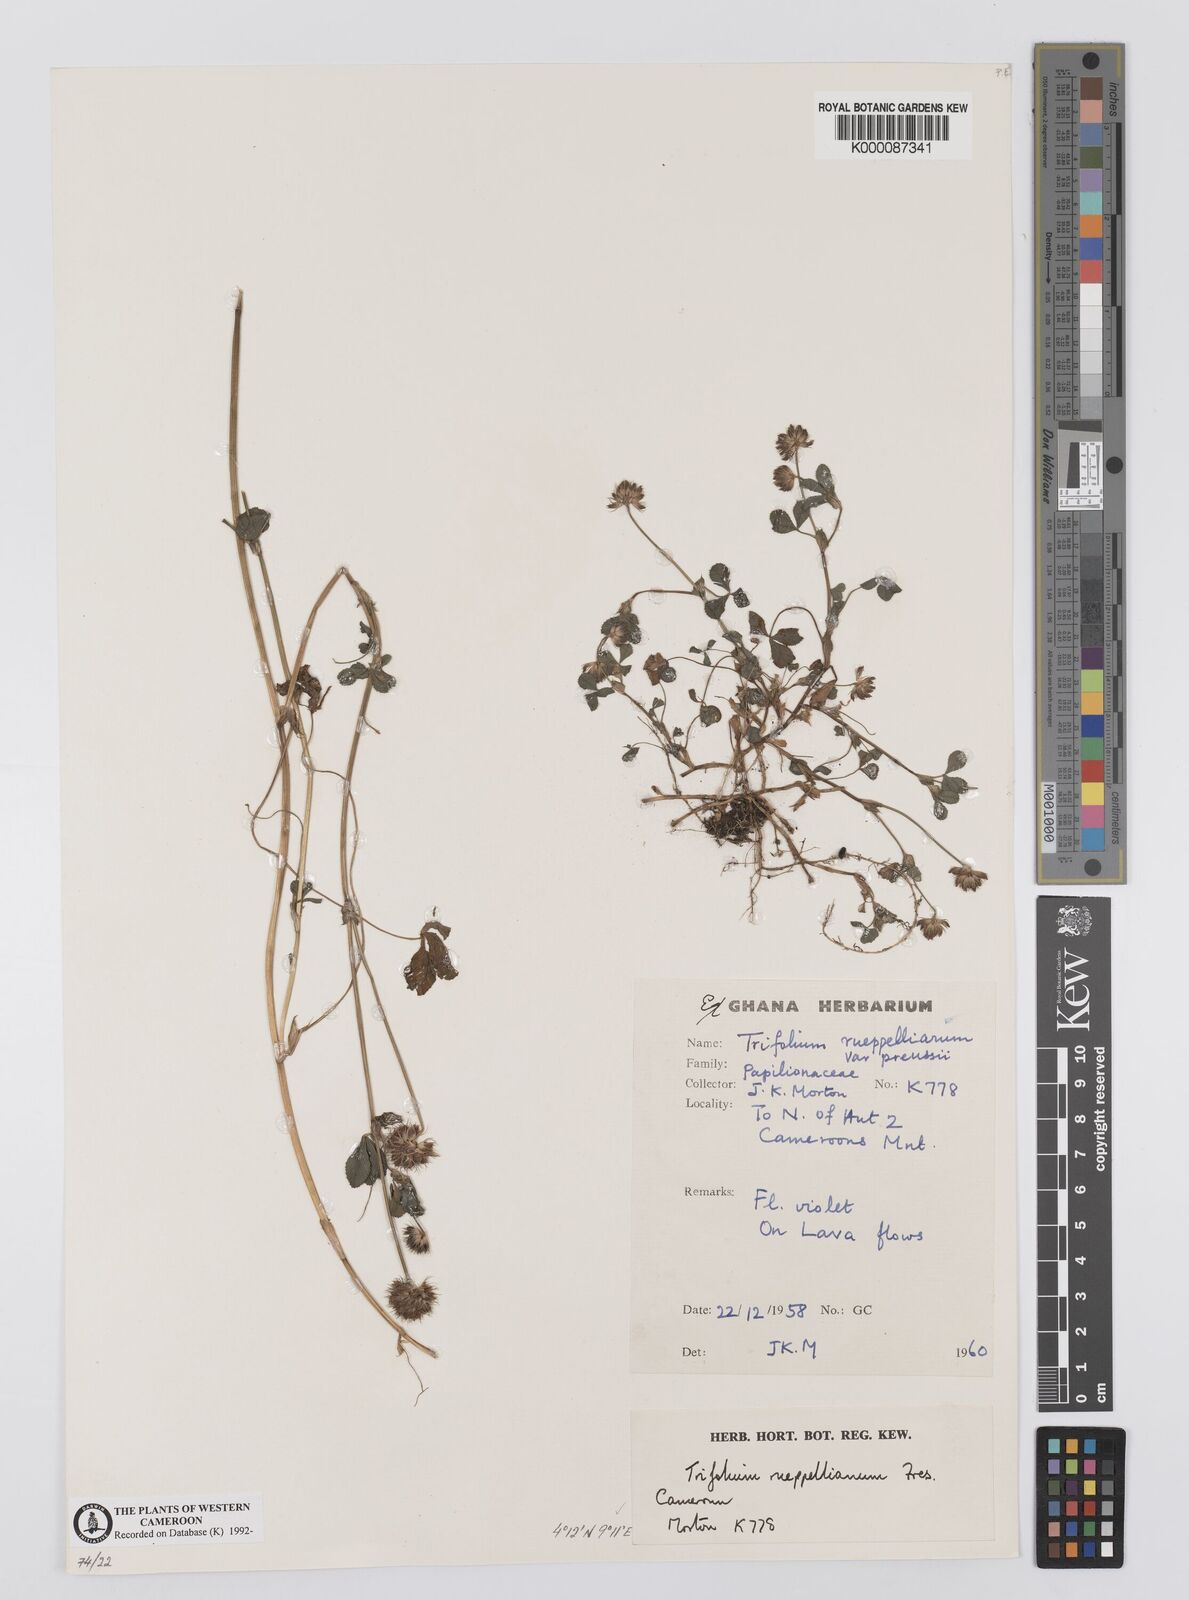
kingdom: Plantae
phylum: Tracheophyta
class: Magnoliopsida
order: Fabales
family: Fabaceae
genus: Trifolium
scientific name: Trifolium rueppellianum
